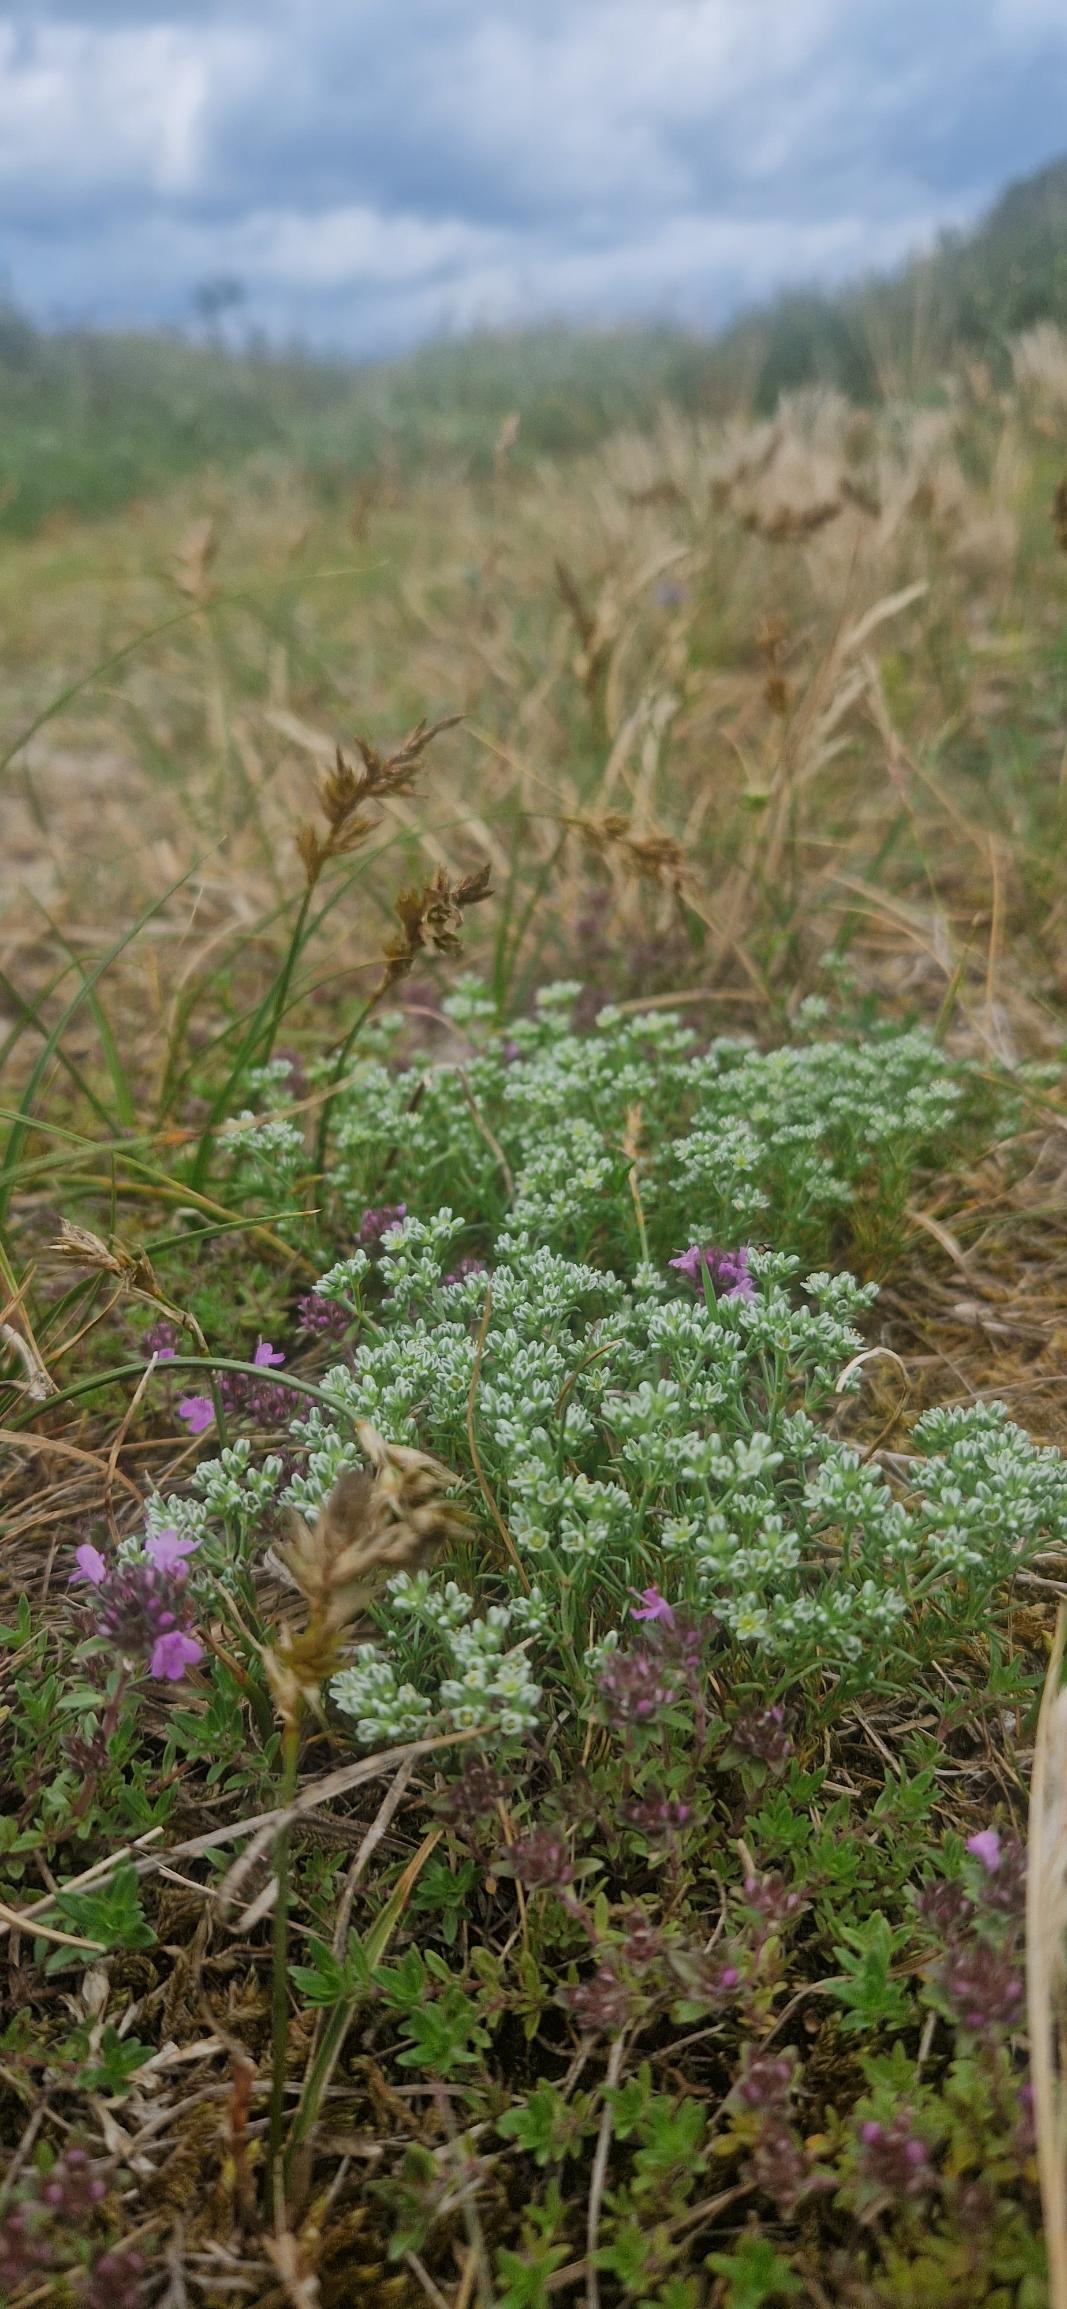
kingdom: Plantae
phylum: Tracheophyta
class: Magnoliopsida
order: Caryophyllales
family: Caryophyllaceae
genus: Scleranthus
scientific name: Scleranthus perennis
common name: Flerårig knavel
